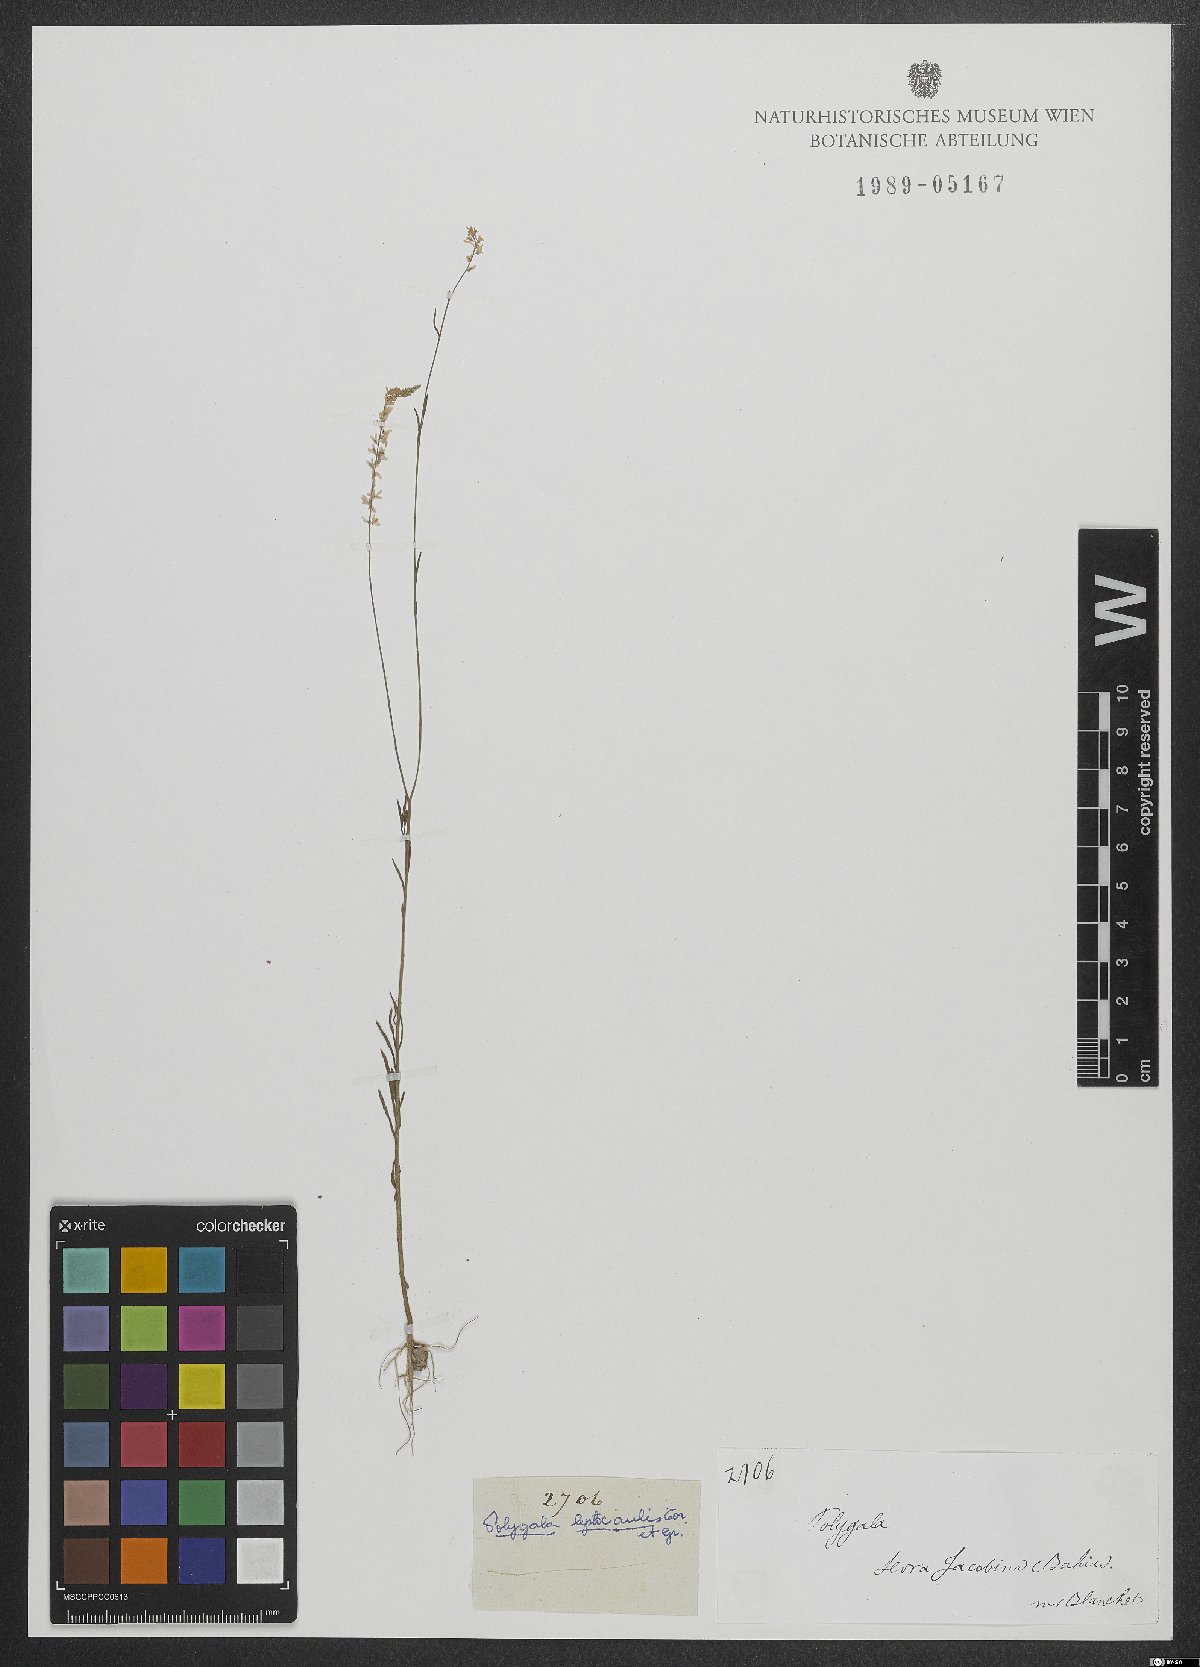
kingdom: Plantae
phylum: Tracheophyta
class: Magnoliopsida
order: Fabales
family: Polygalaceae
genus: Polygala
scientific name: Polygala tenella
